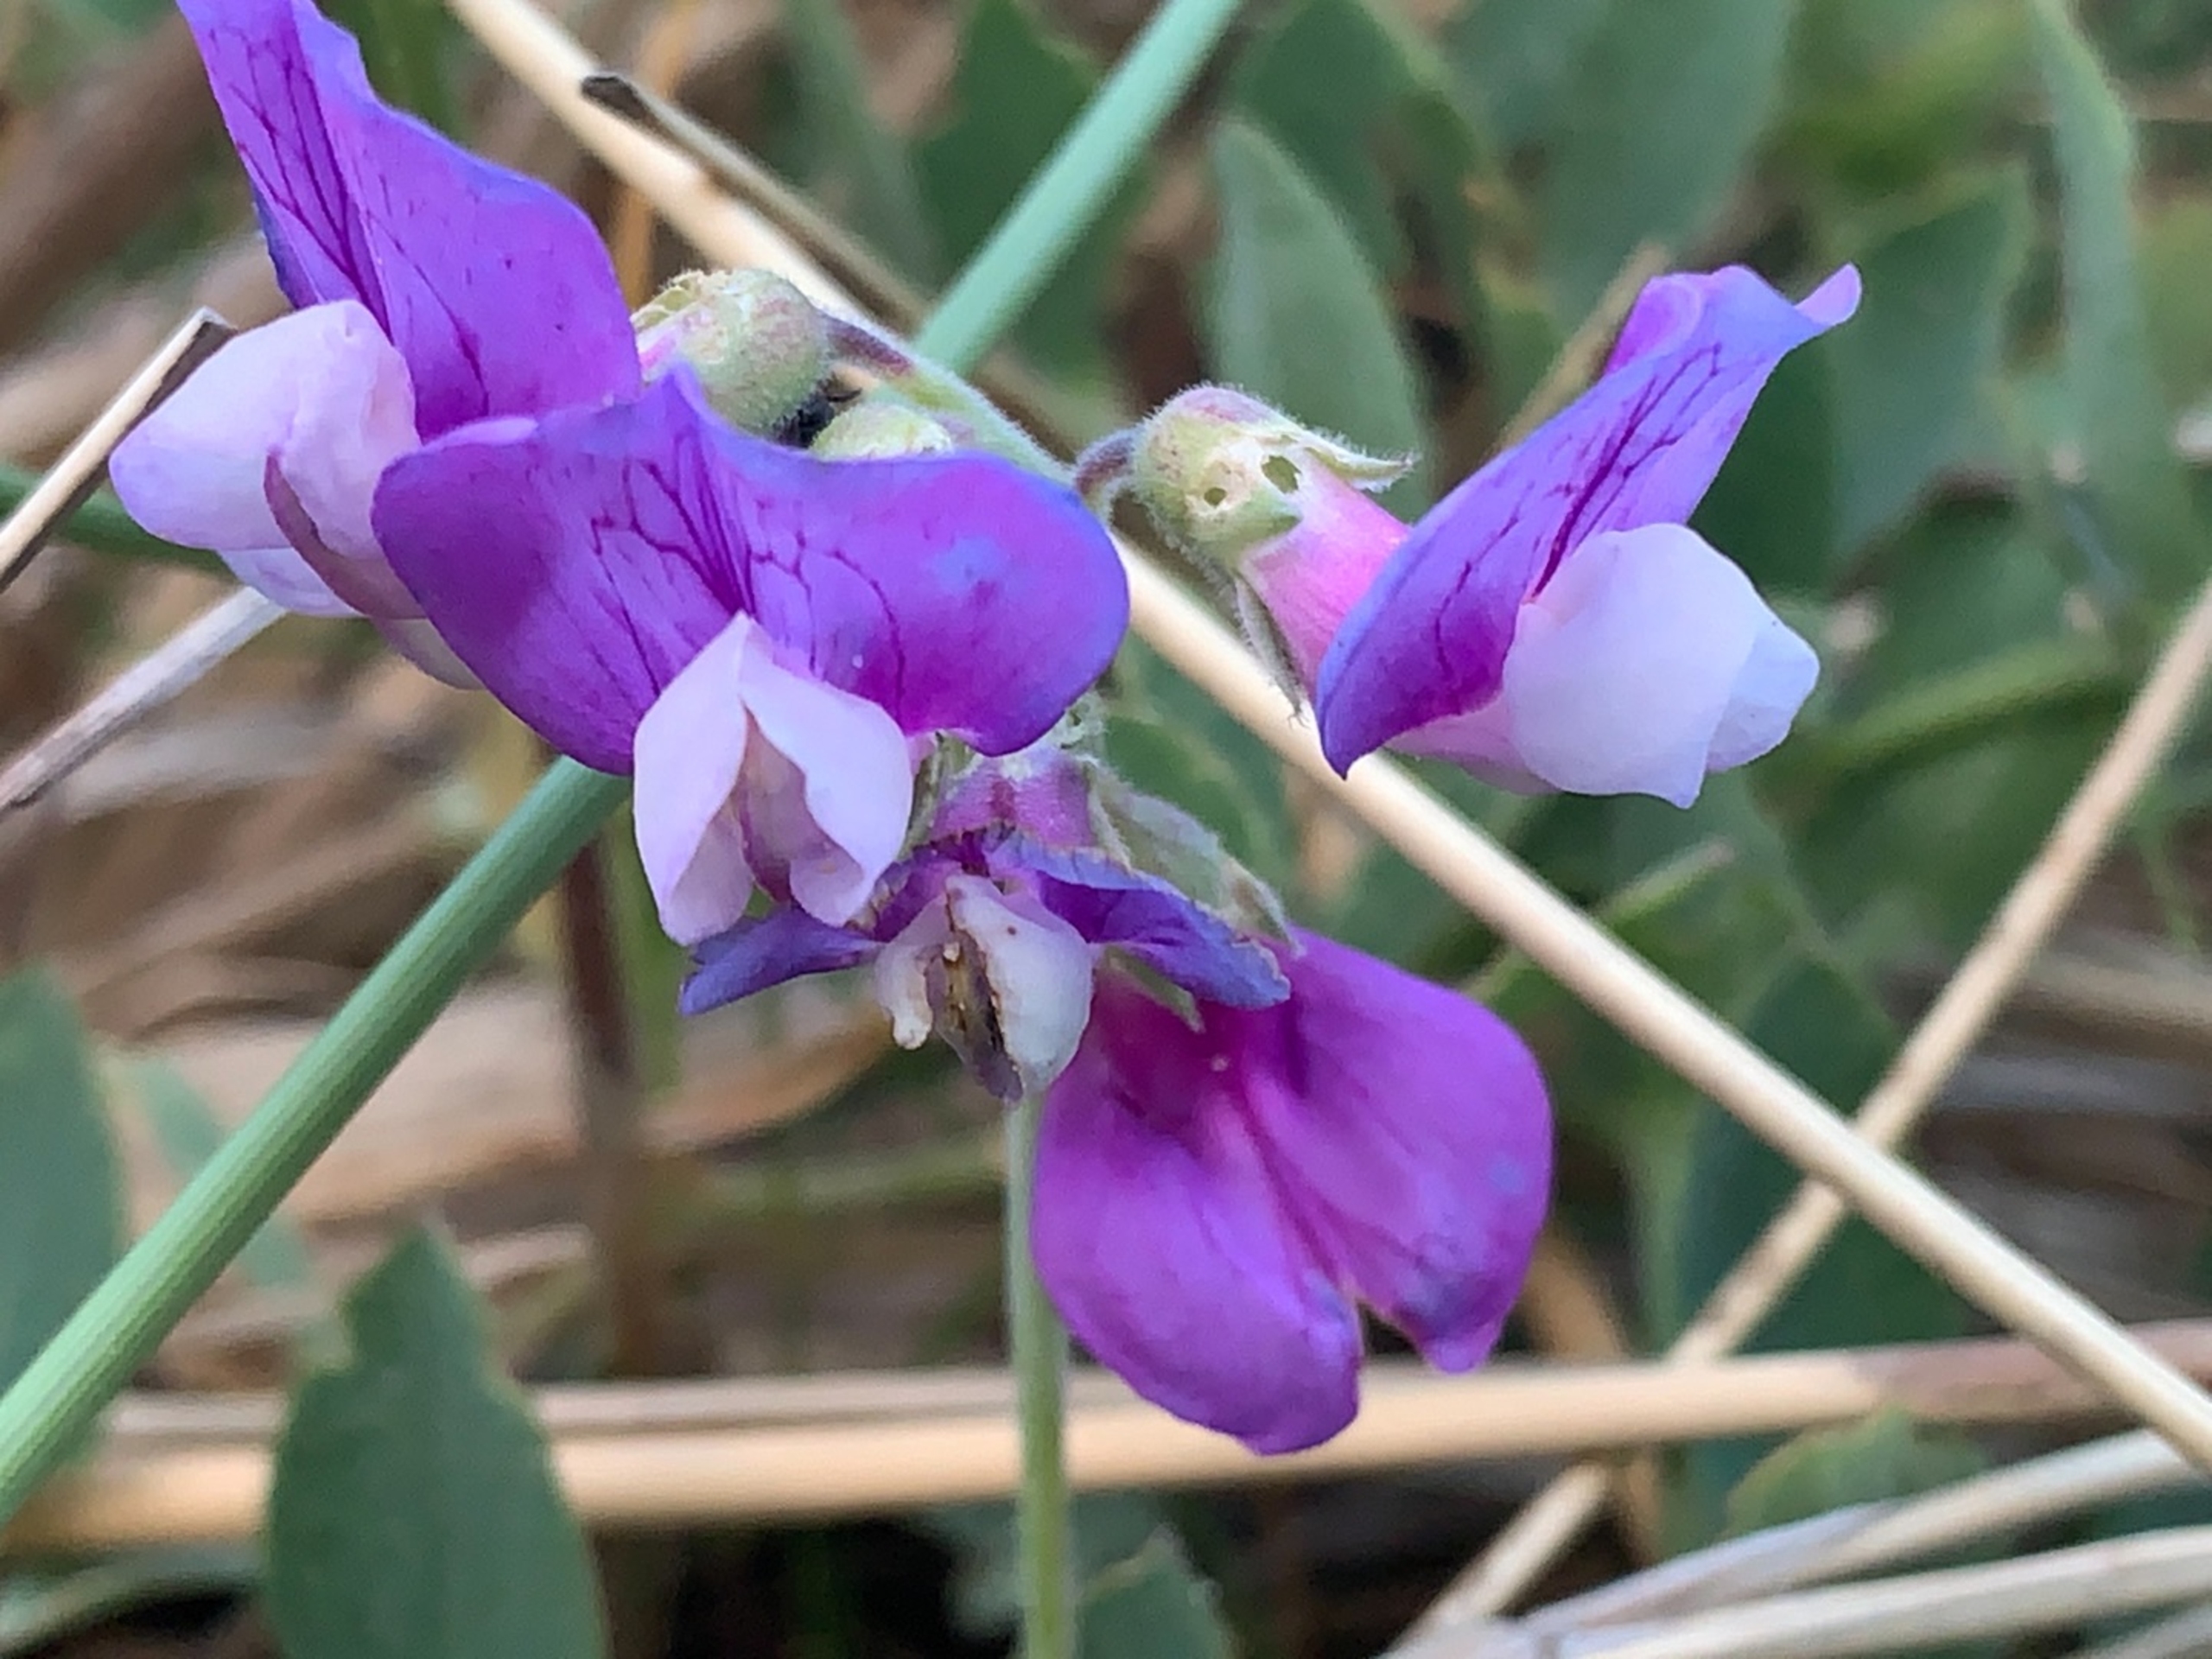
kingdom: Plantae
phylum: Tracheophyta
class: Magnoliopsida
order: Fabales
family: Fabaceae
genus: Lathyrus
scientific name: Lathyrus japonicus
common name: Strand-fladbælg
